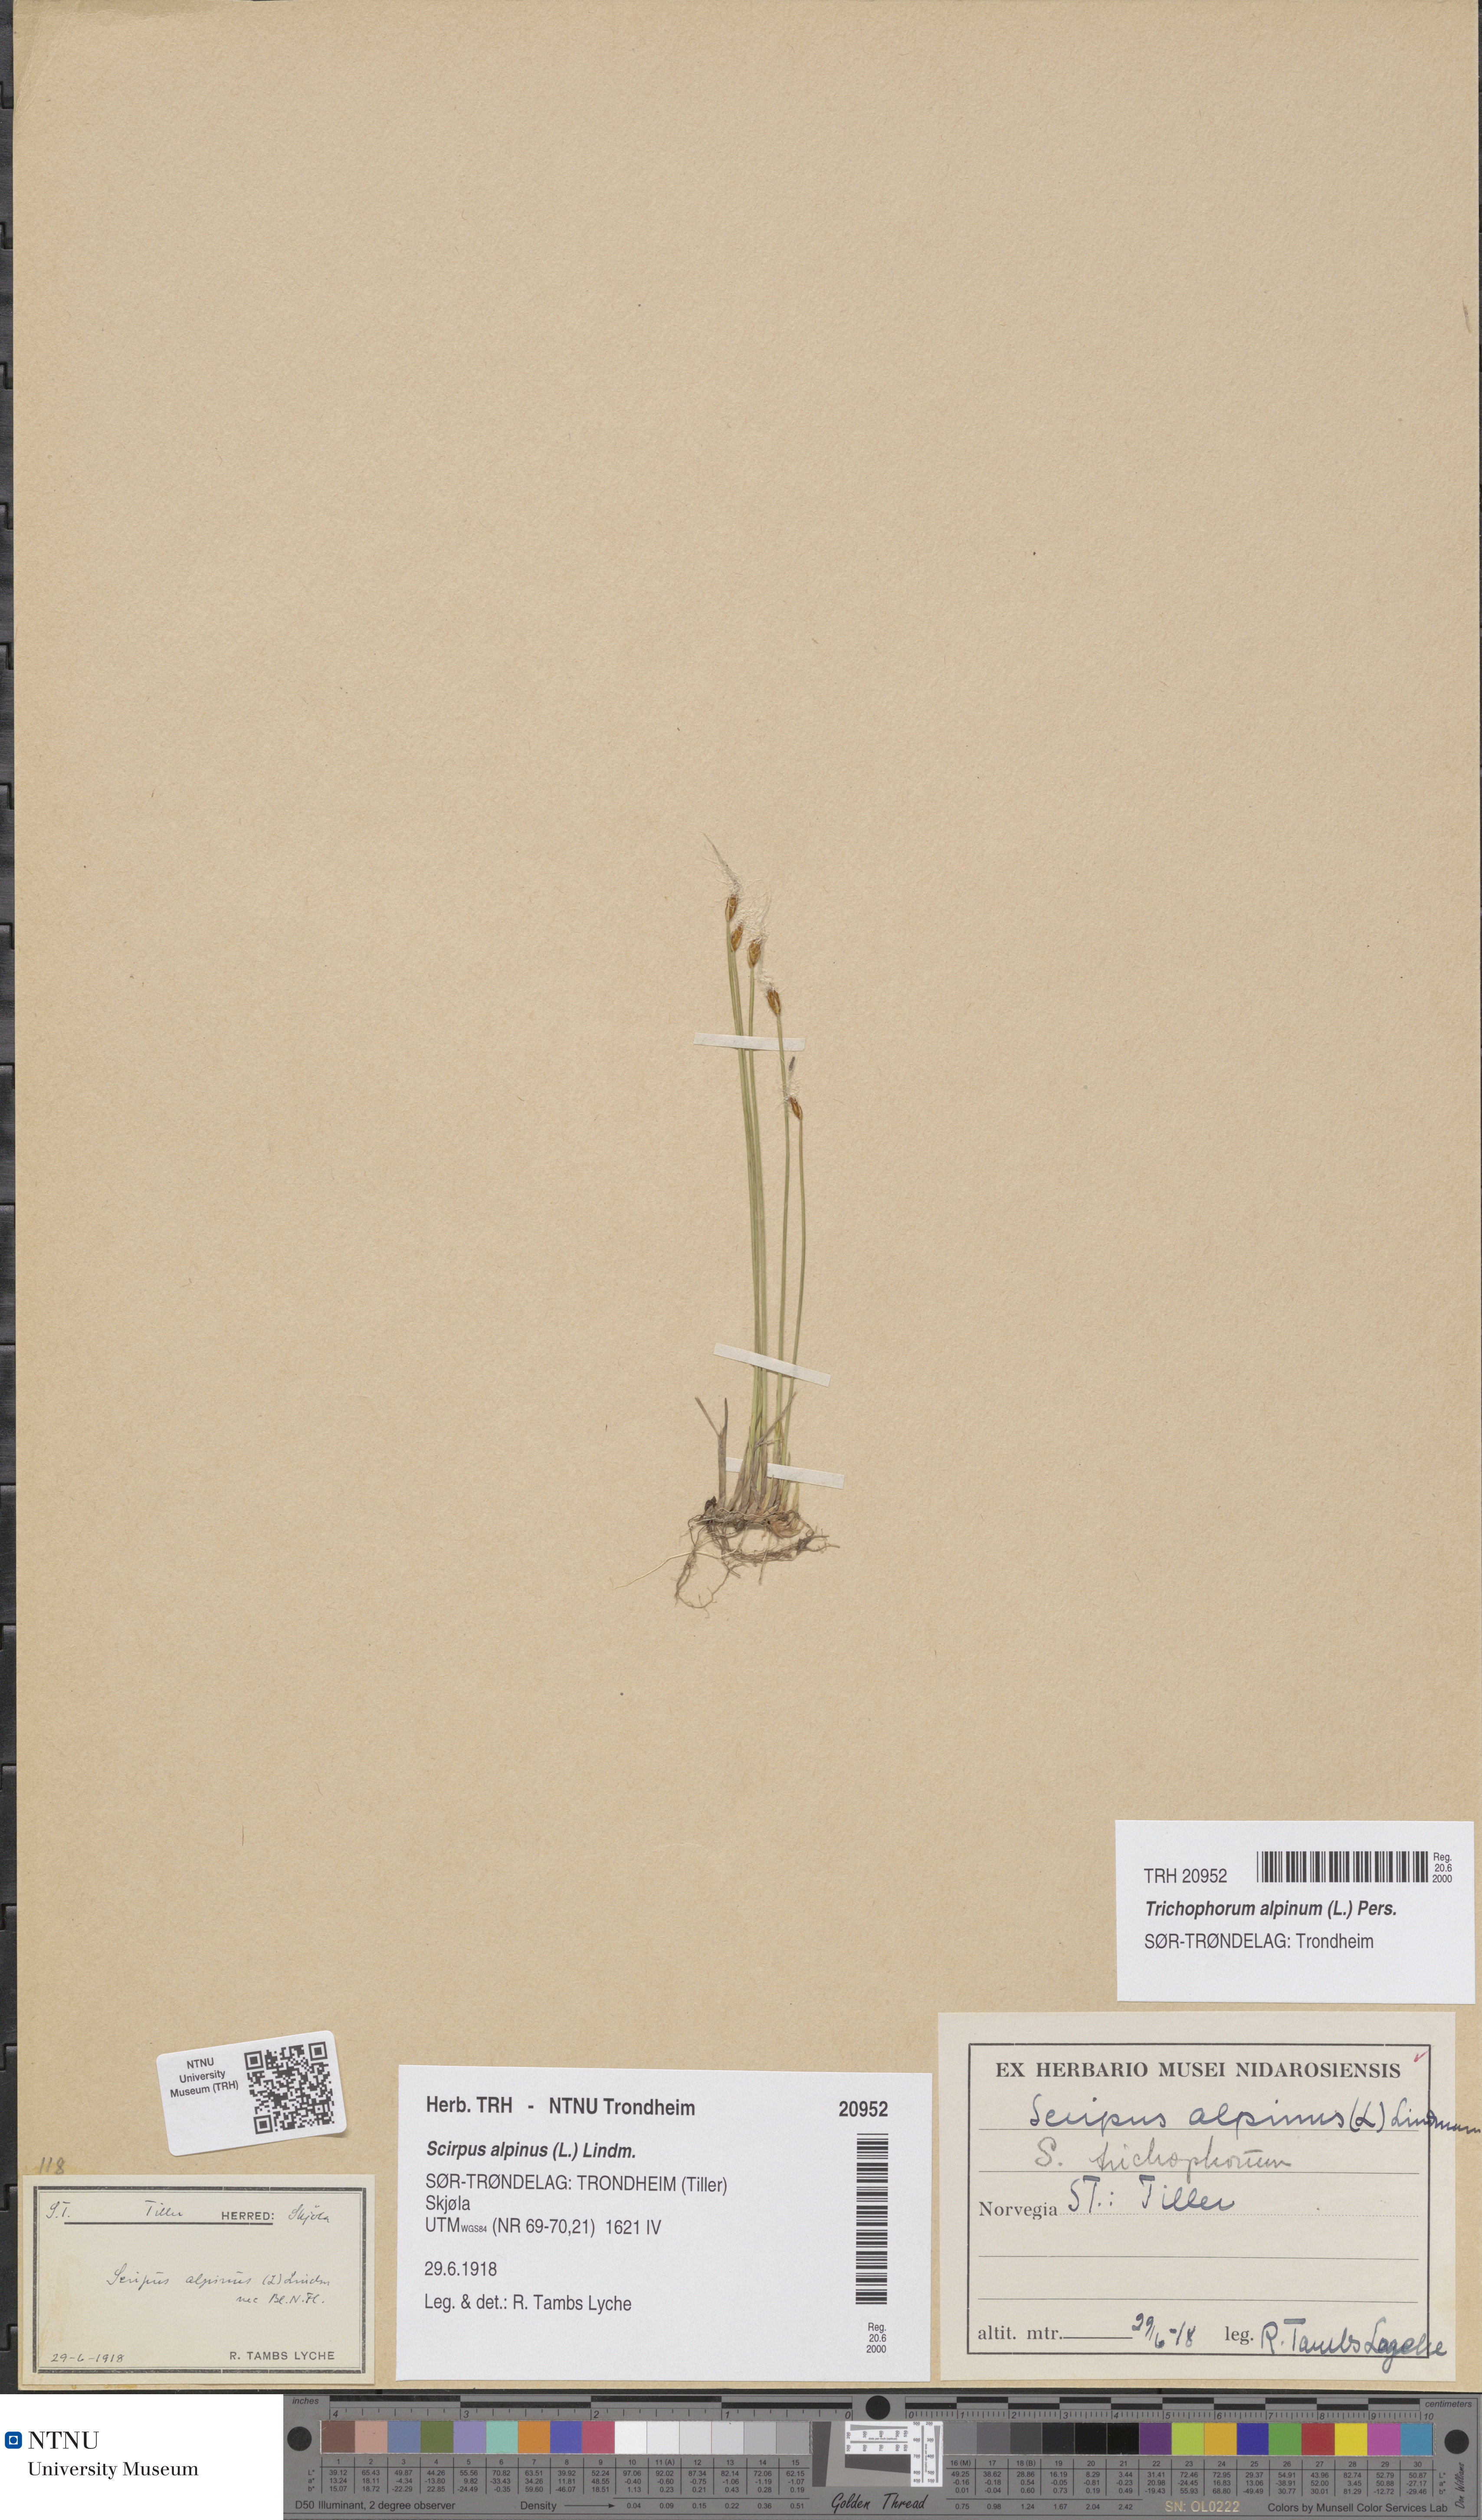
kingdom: Plantae
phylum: Tracheophyta
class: Liliopsida
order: Poales
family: Cyperaceae
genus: Trichophorum
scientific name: Trichophorum alpinum
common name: Alpine bulrush
